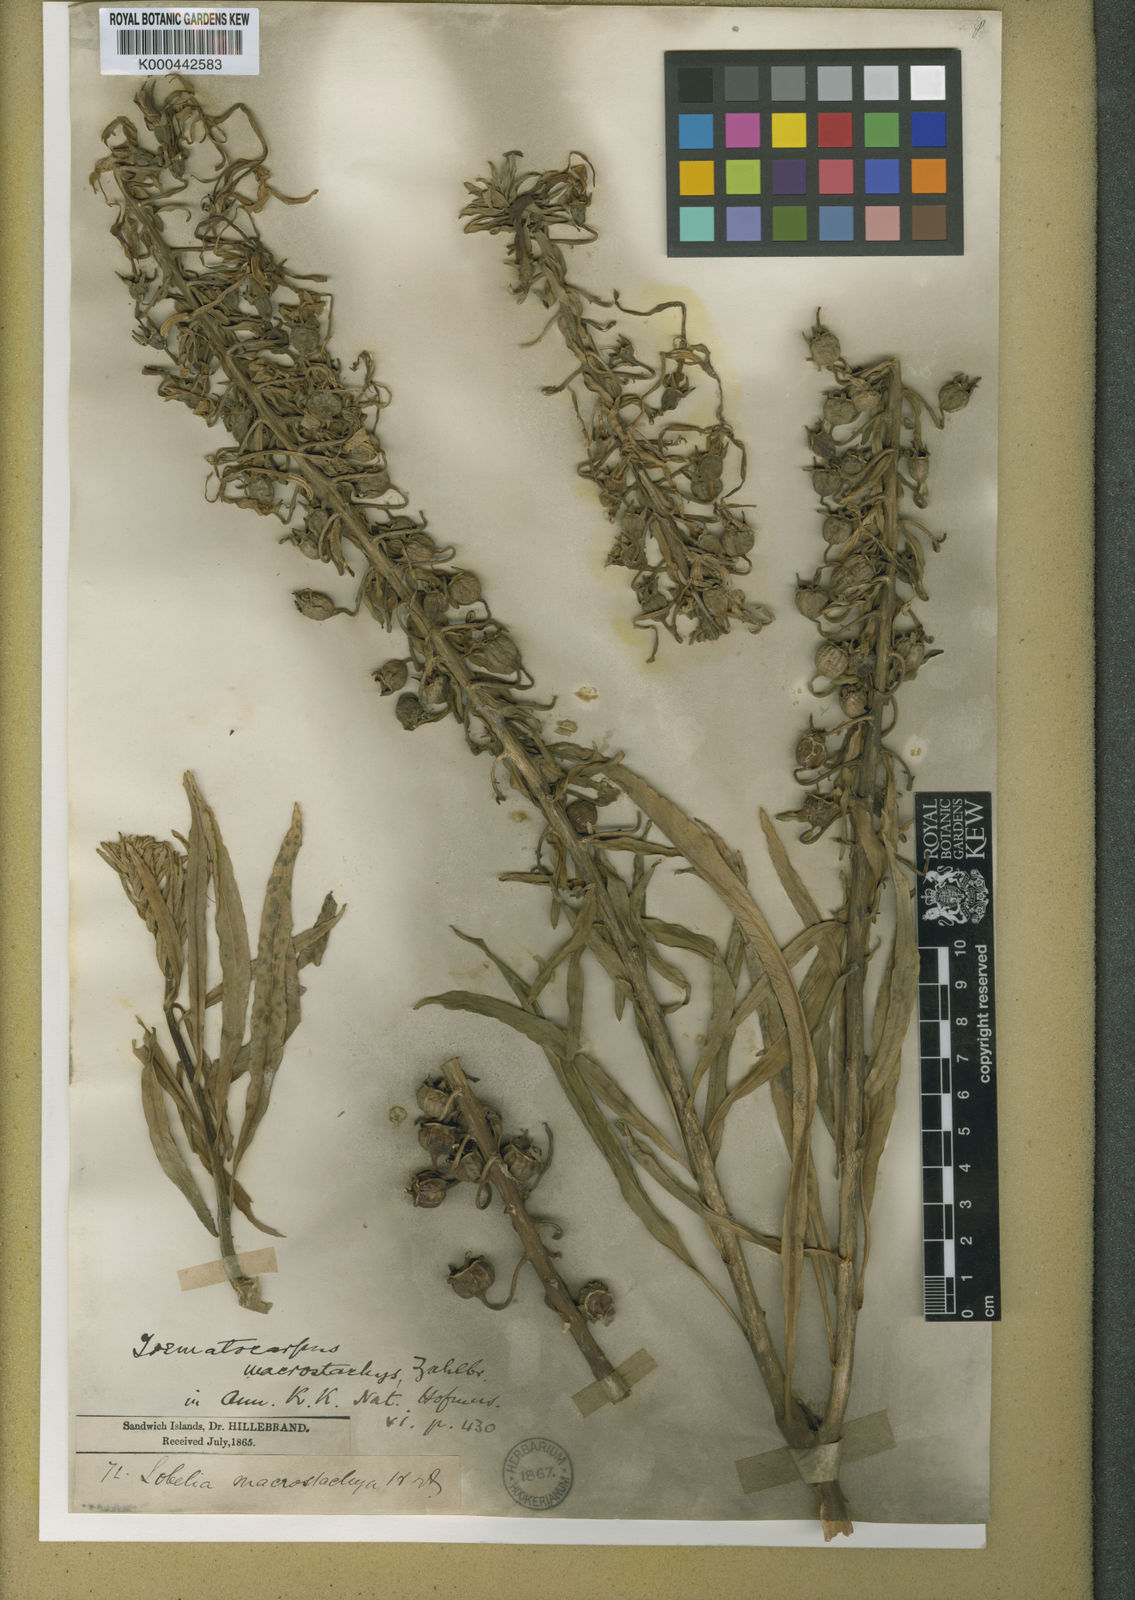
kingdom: Plantae
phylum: Tracheophyta
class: Magnoliopsida
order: Asterales
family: Campanulaceae
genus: Trematolobelia
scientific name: Trematolobelia macrostachys
